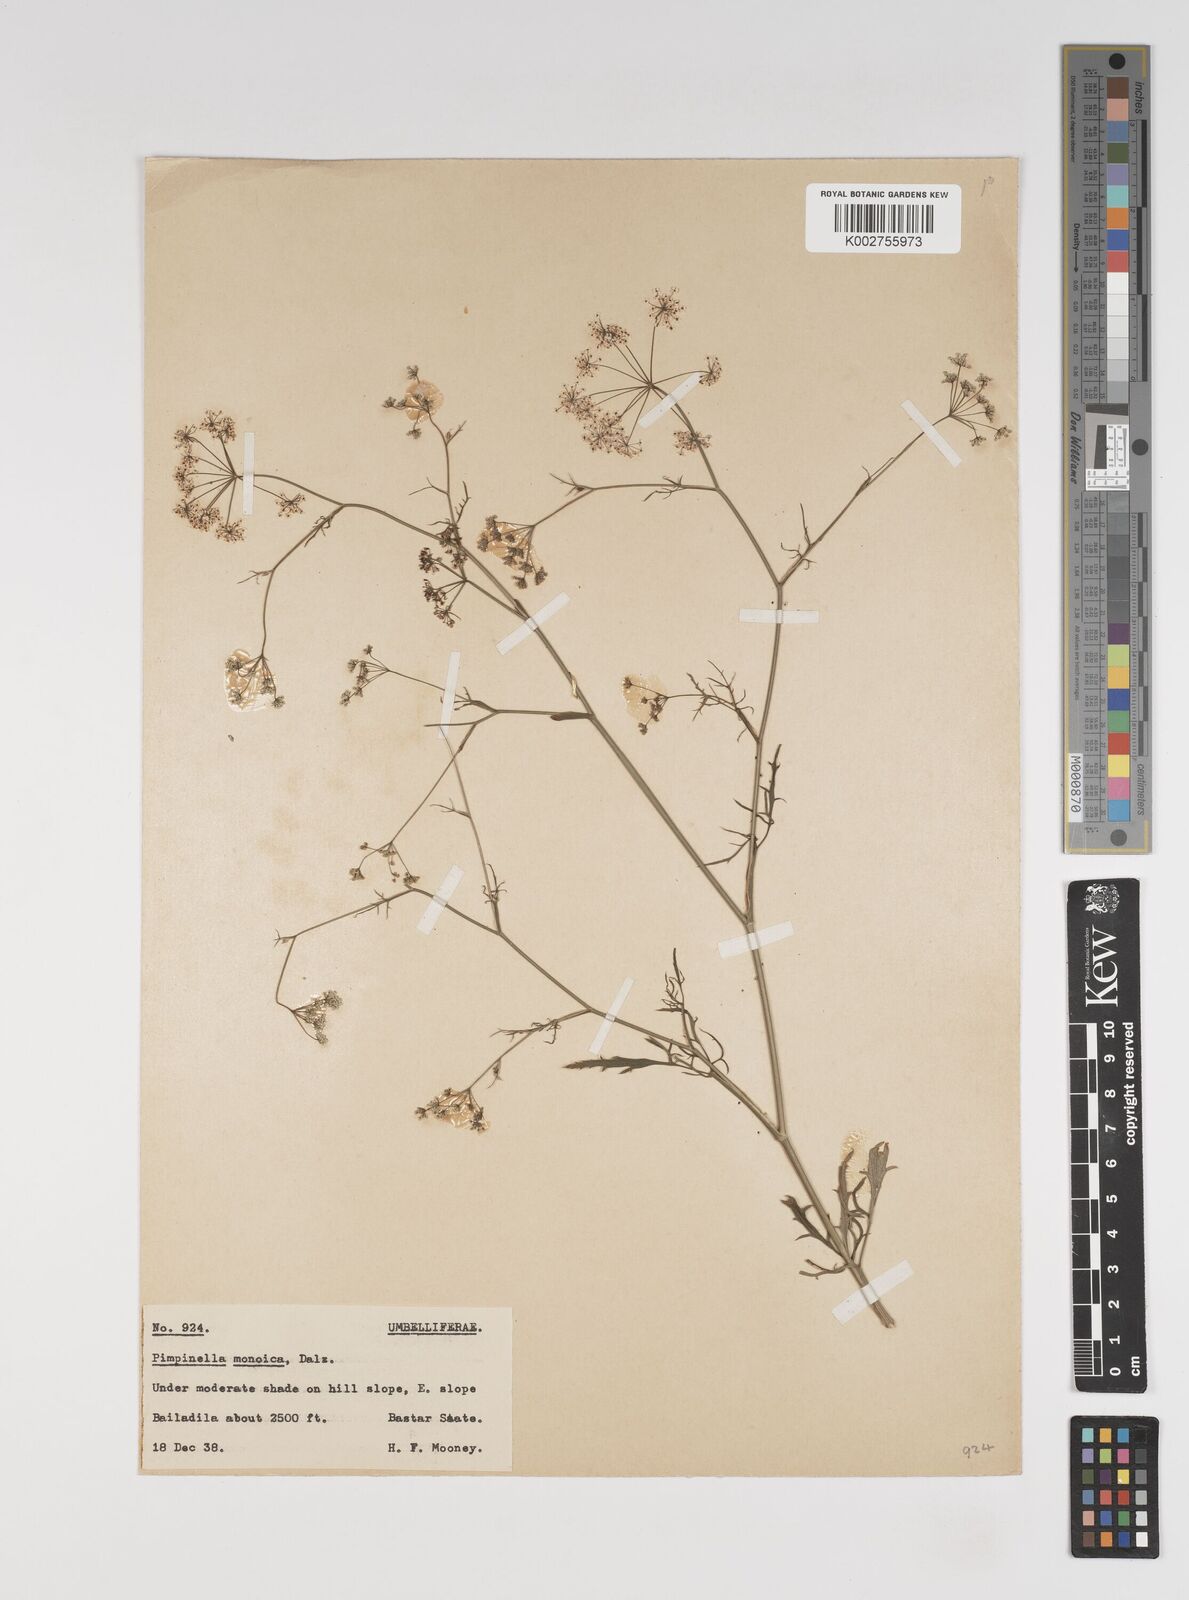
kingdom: Plantae
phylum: Tracheophyta
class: Magnoliopsida
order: Apiales
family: Apiaceae
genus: Pimpinella
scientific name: Pimpinella wallichiana
